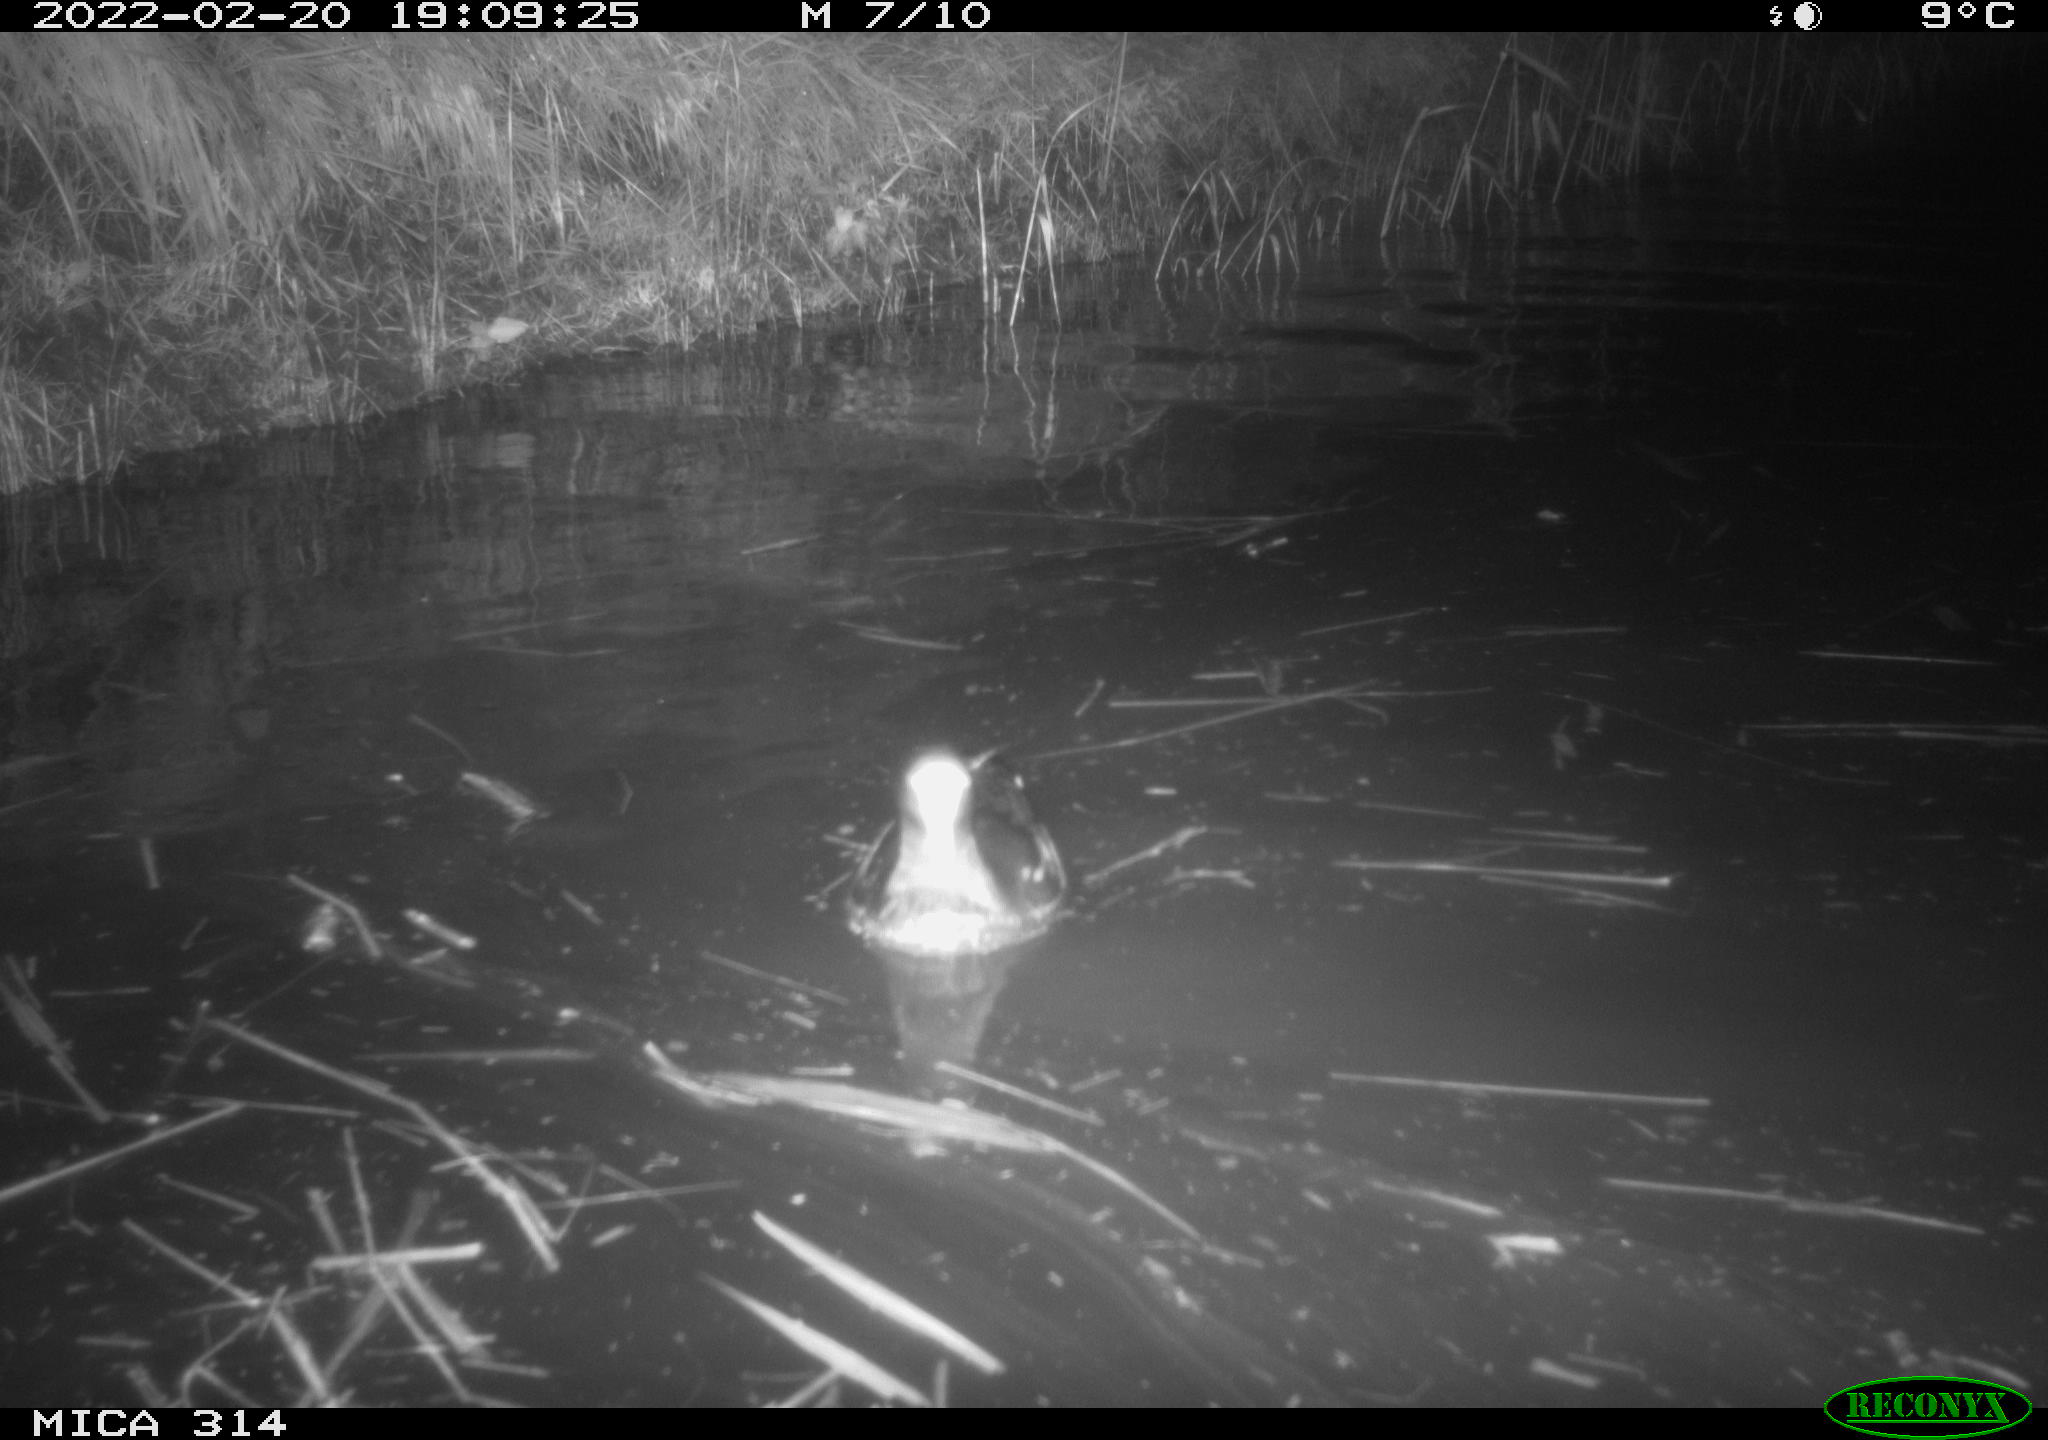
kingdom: Animalia
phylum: Chordata
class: Aves
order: Gruiformes
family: Rallidae
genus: Gallinula
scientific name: Gallinula chloropus
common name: Common moorhen
